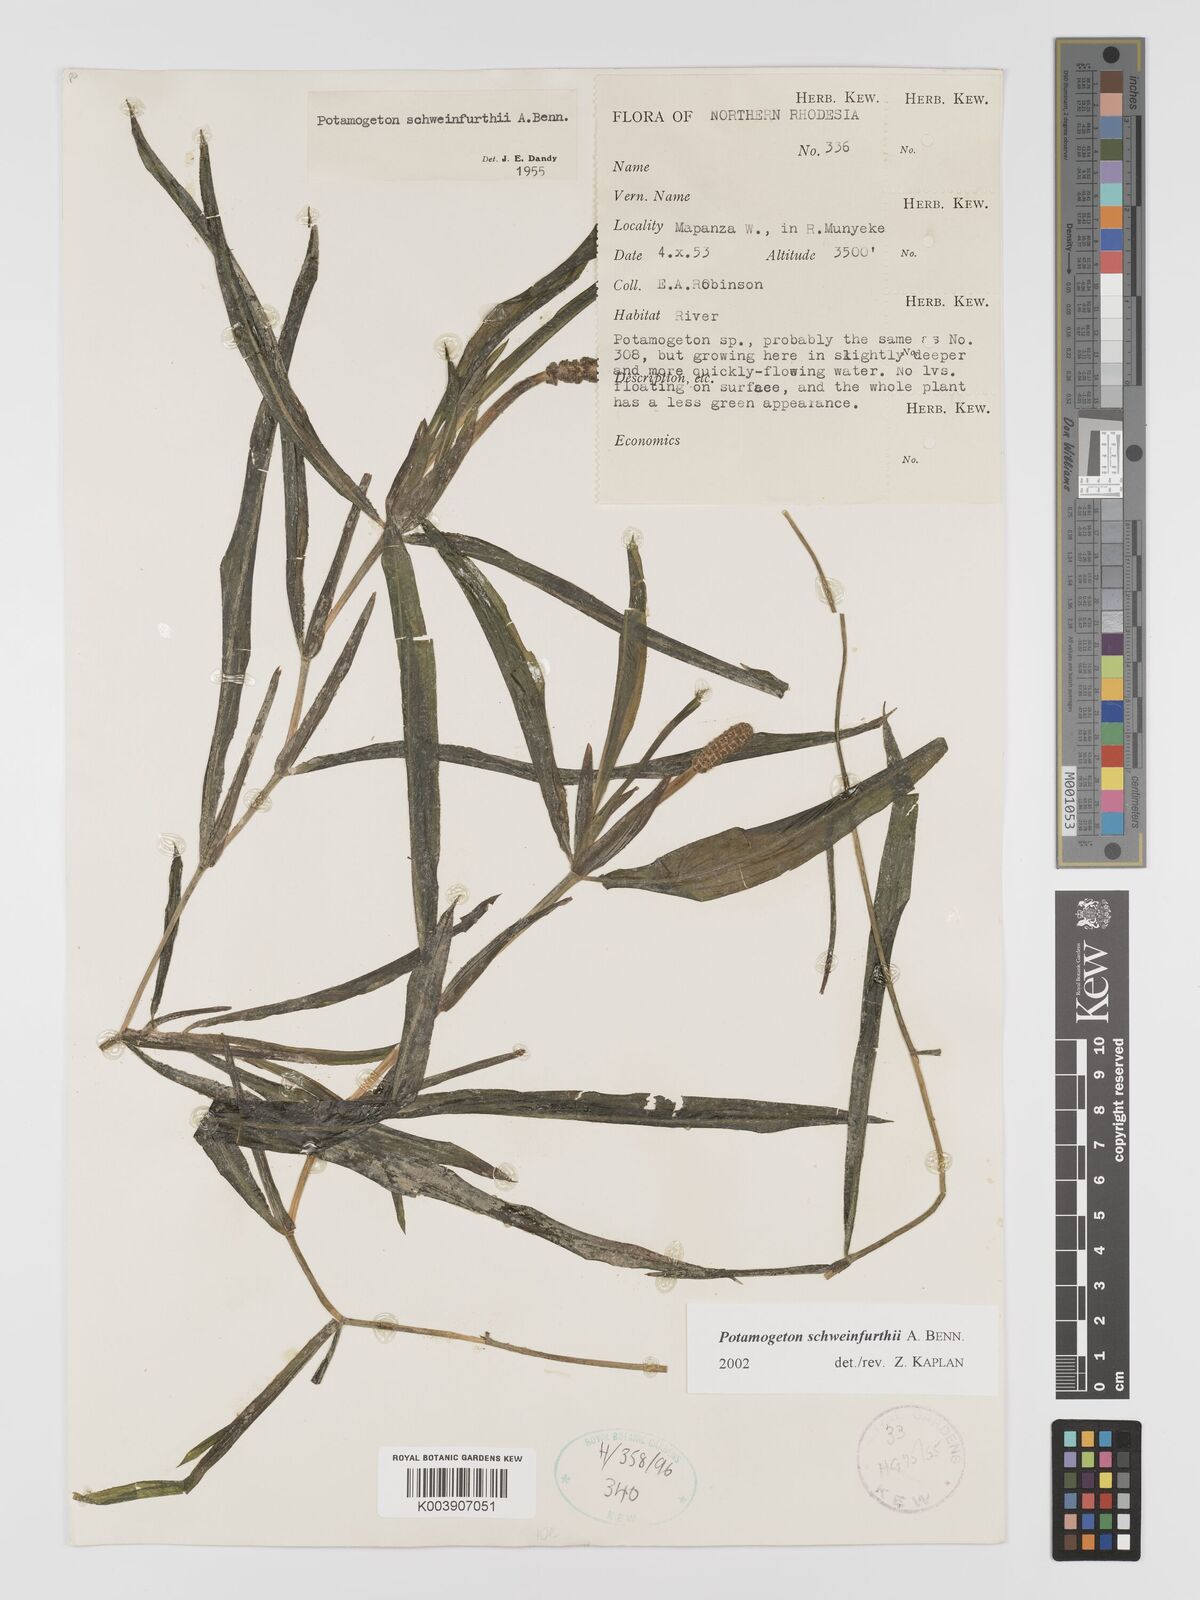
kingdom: Plantae
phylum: Tracheophyta
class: Liliopsida
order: Alismatales
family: Potamogetonaceae
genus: Potamogeton
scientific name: Potamogeton schweinfurthii
